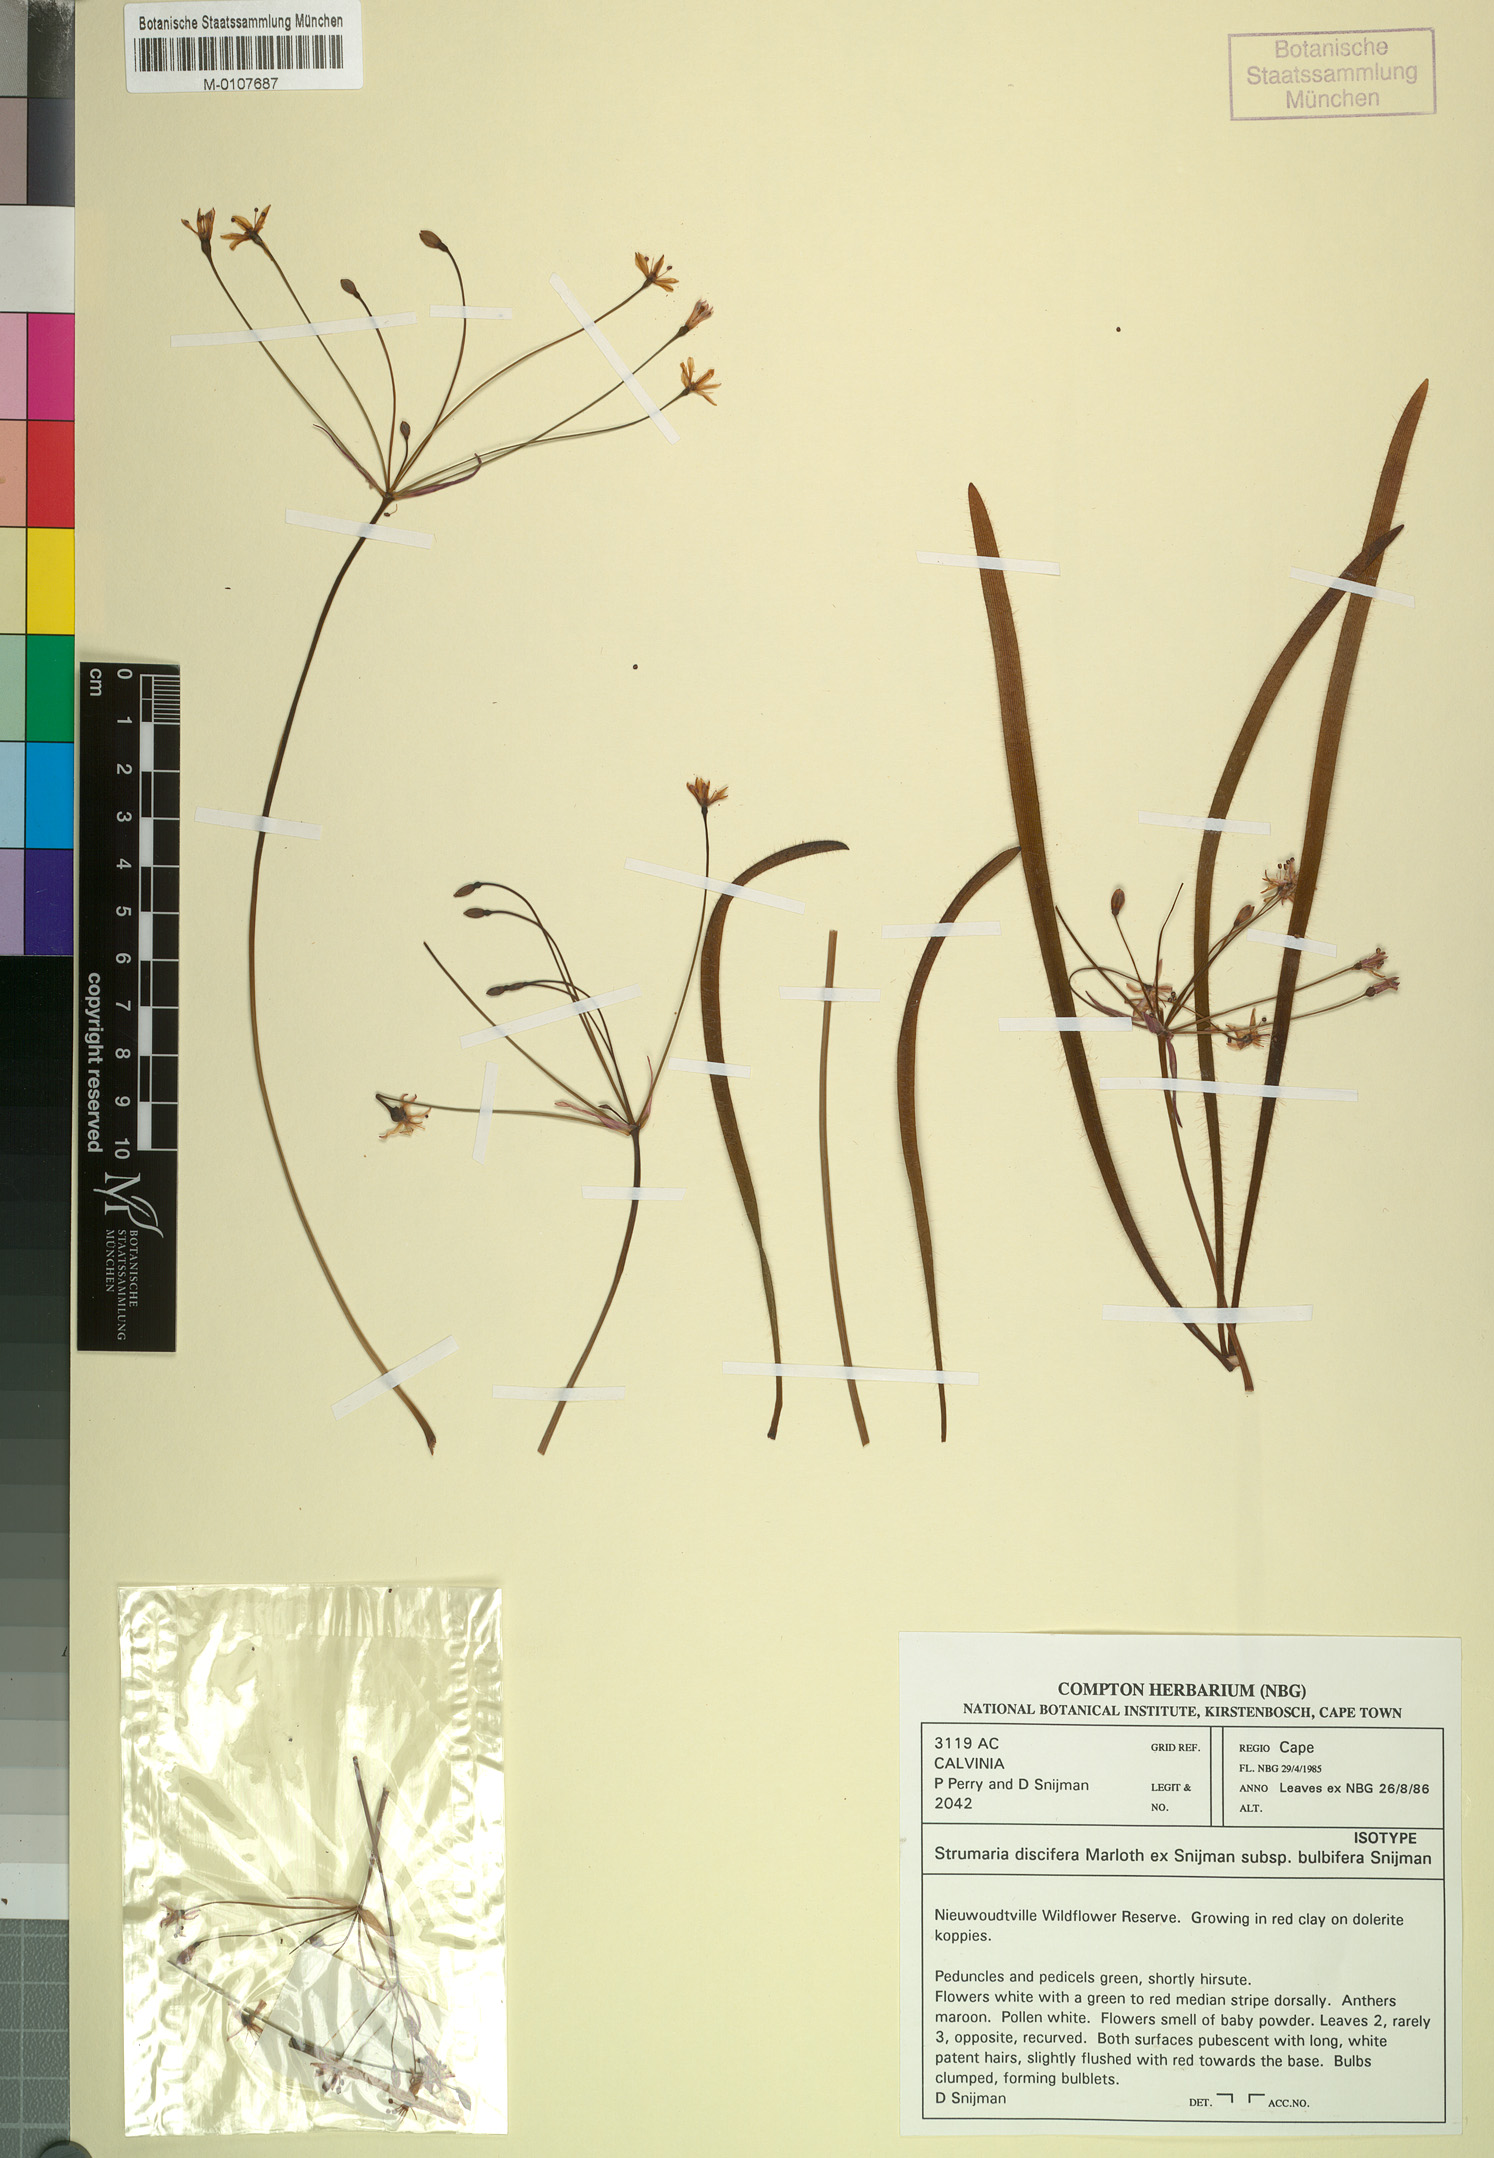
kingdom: Plantae
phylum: Tracheophyta
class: Liliopsida
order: Asparagales
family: Amaryllidaceae
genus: Strumaria
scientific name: Strumaria discifera
